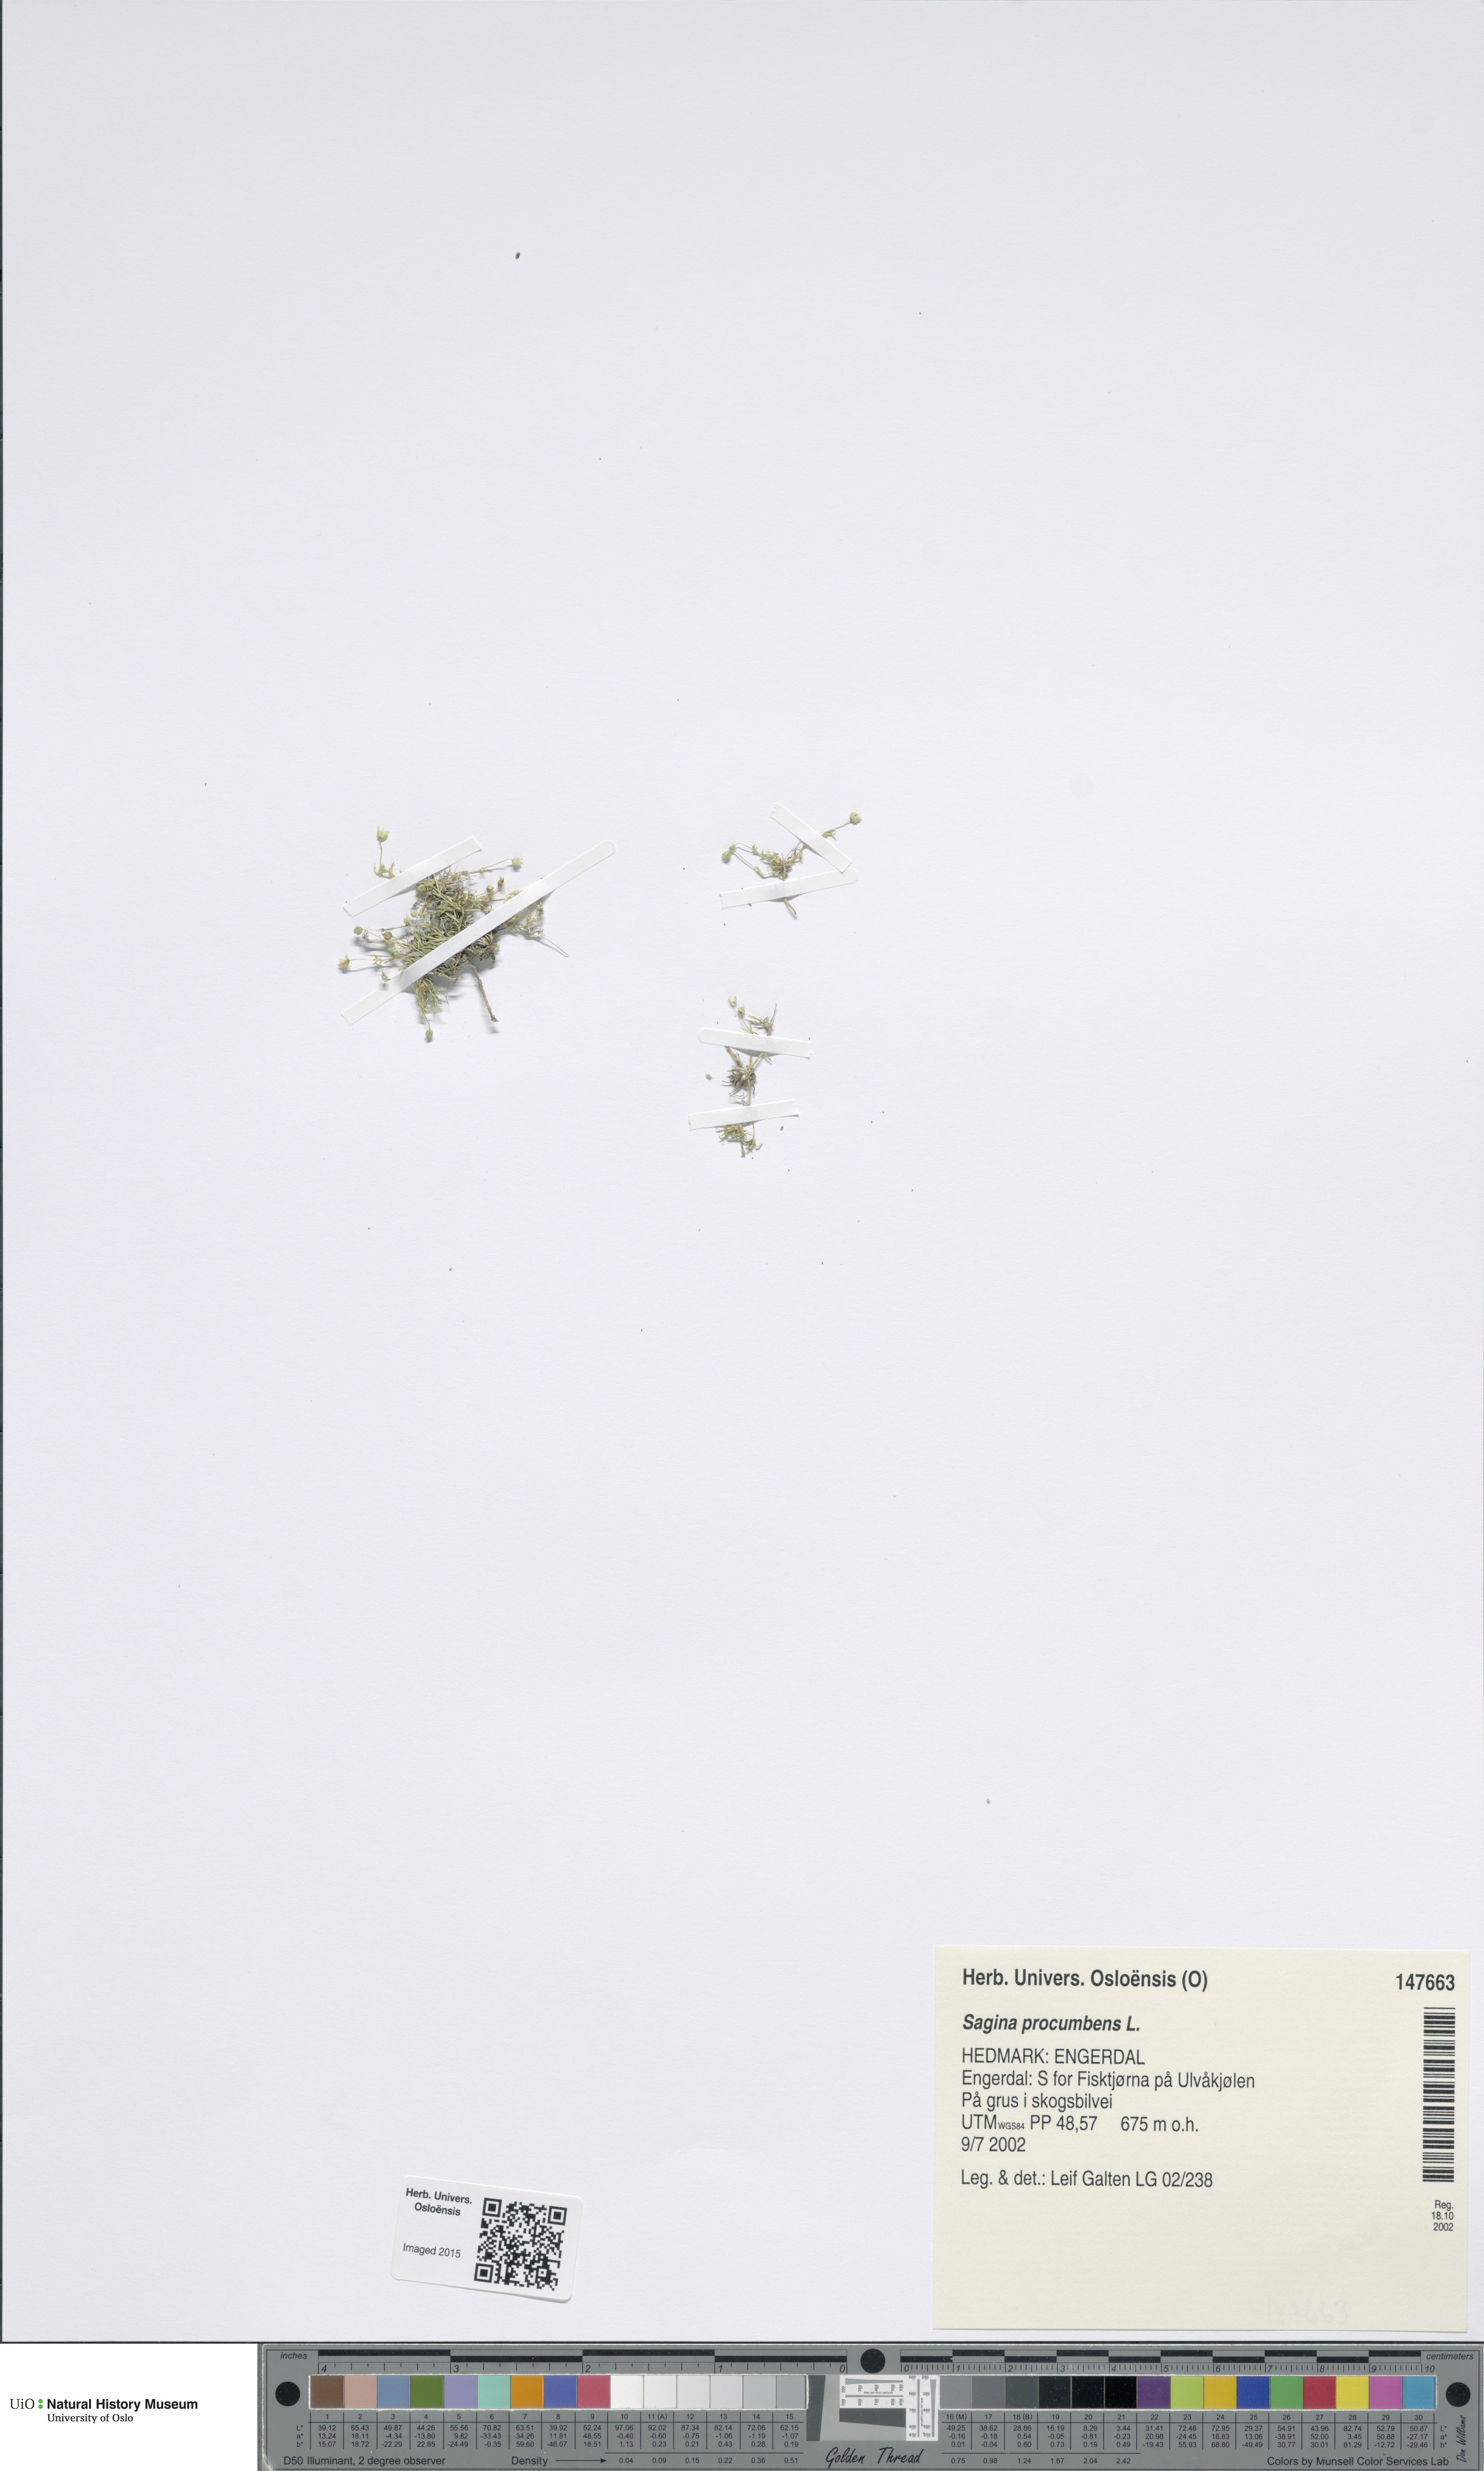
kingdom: Plantae
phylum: Tracheophyta
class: Magnoliopsida
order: Caryophyllales
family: Caryophyllaceae
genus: Sagina
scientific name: Sagina procumbens
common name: Procumbent pearlwort
